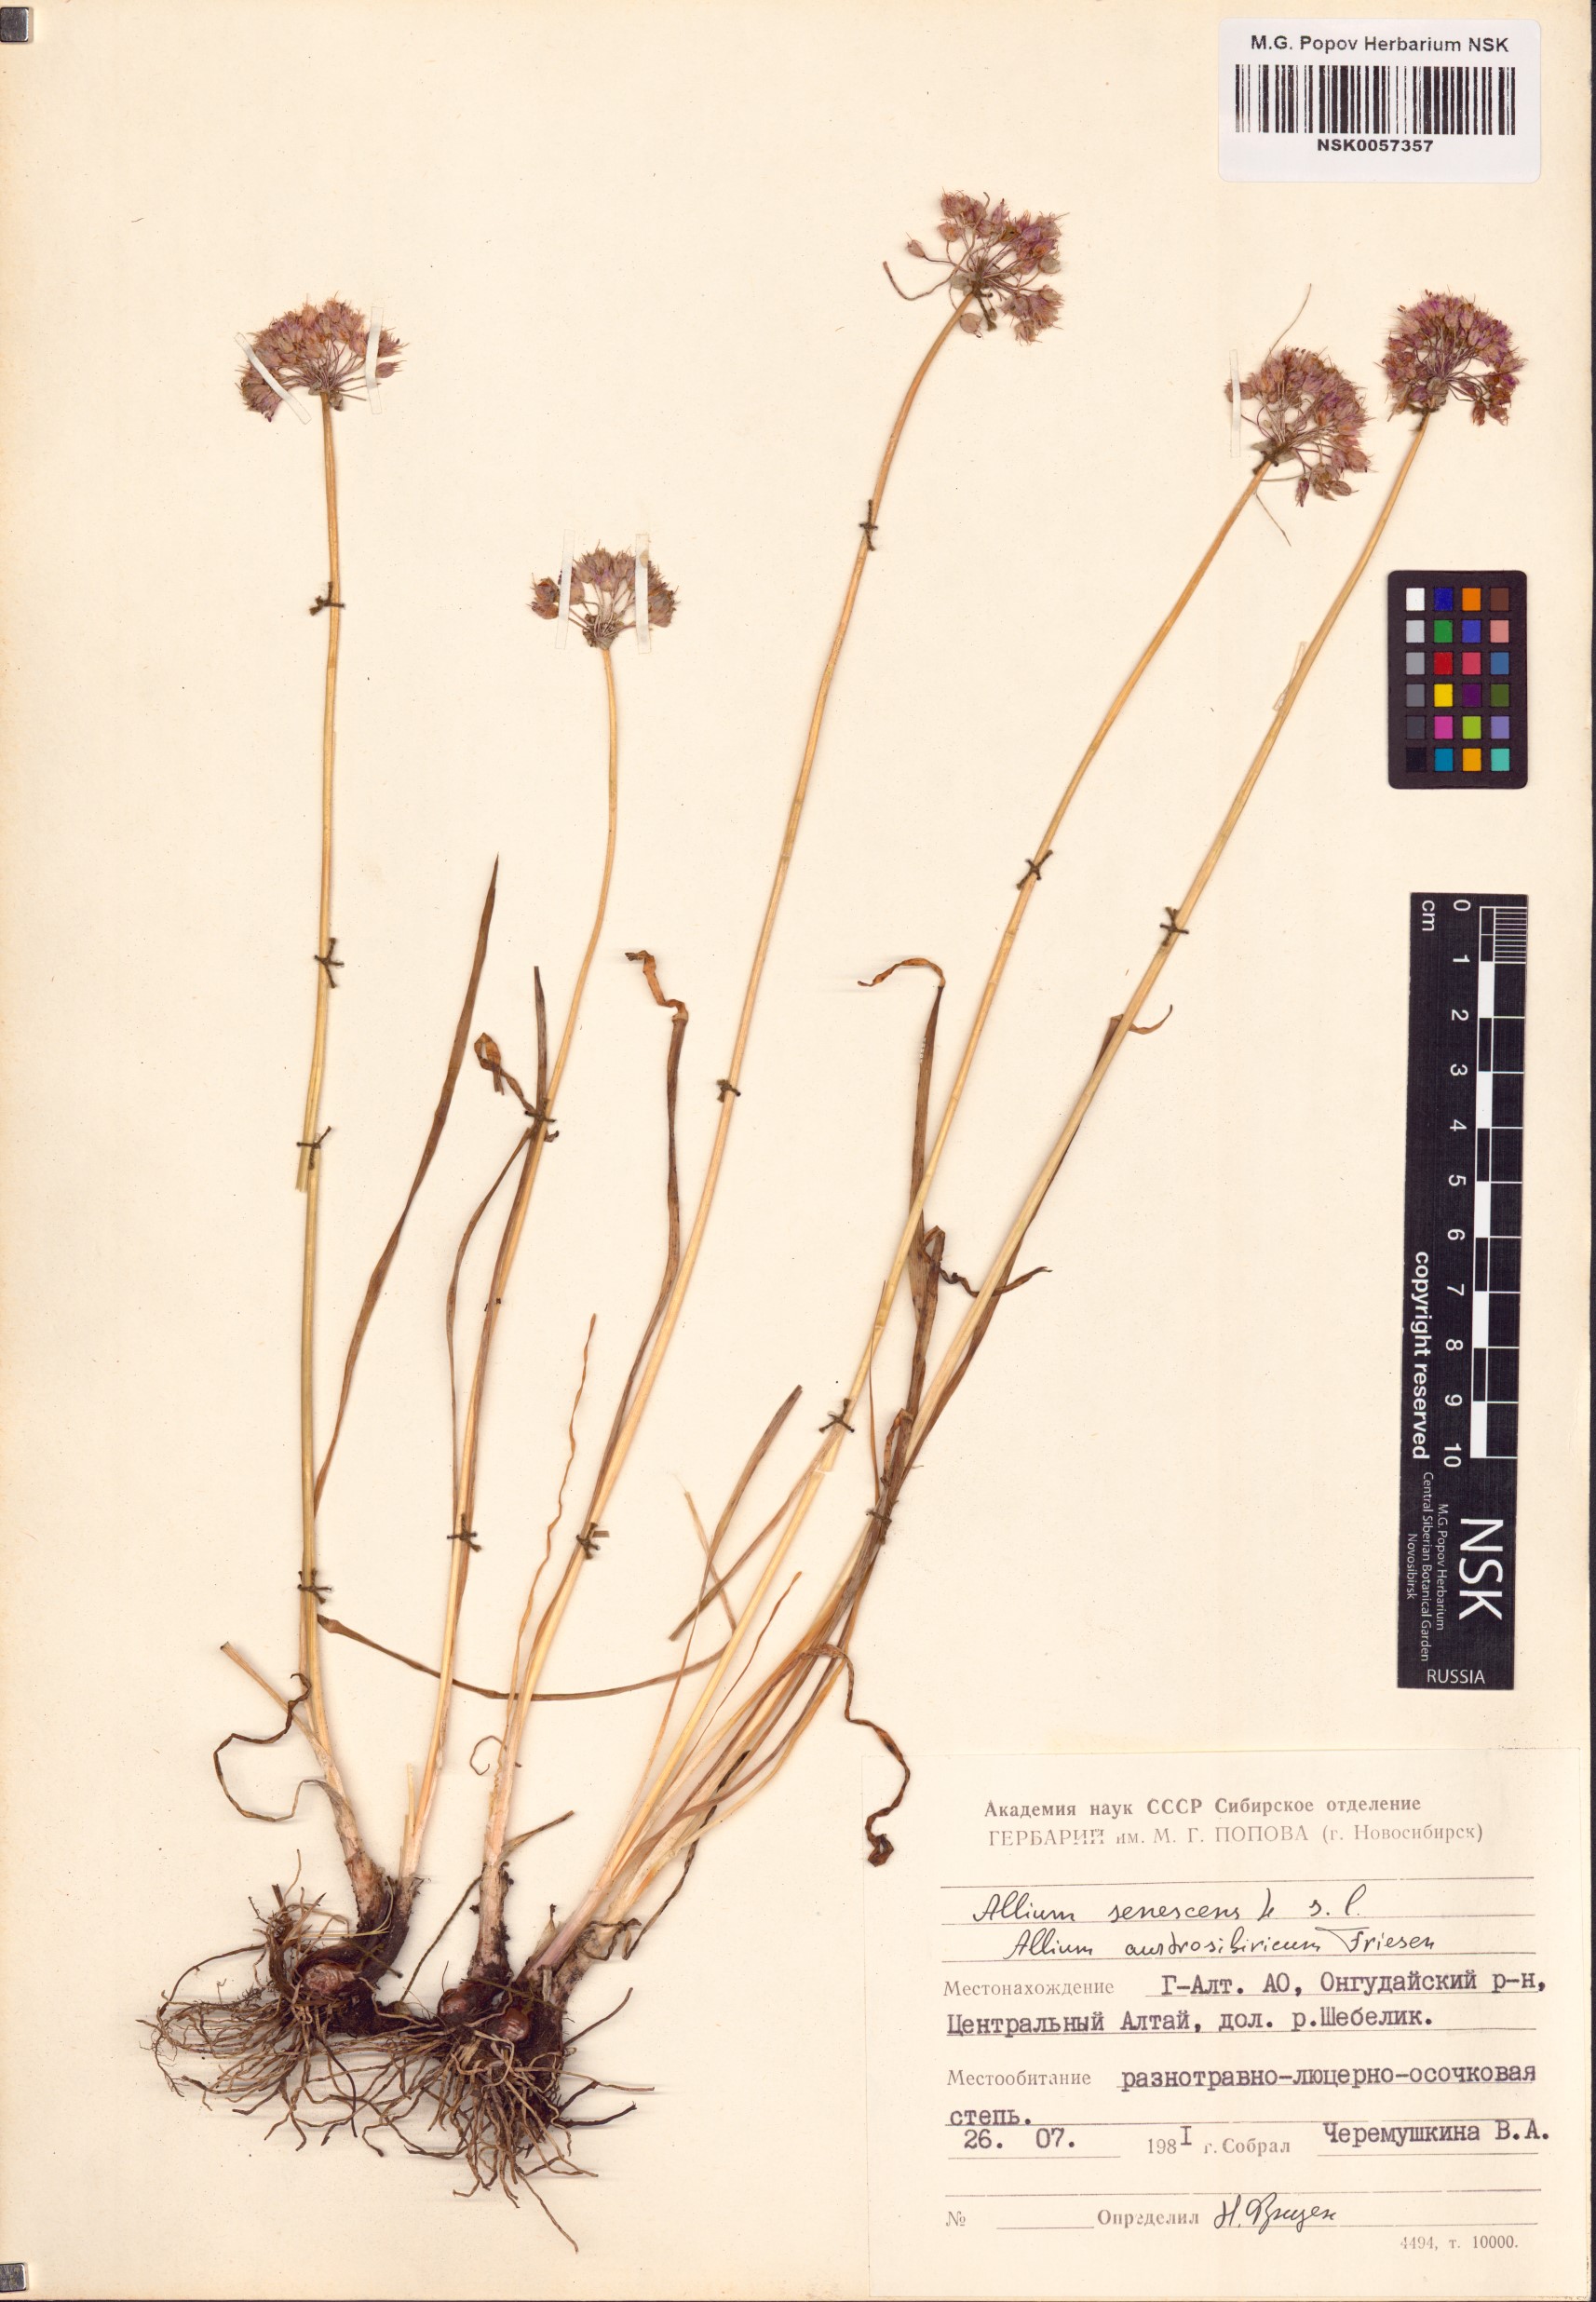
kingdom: Plantae
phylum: Tracheophyta
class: Liliopsida
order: Asparagales
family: Amaryllidaceae
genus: Allium
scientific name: Allium senescens
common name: German garlic
